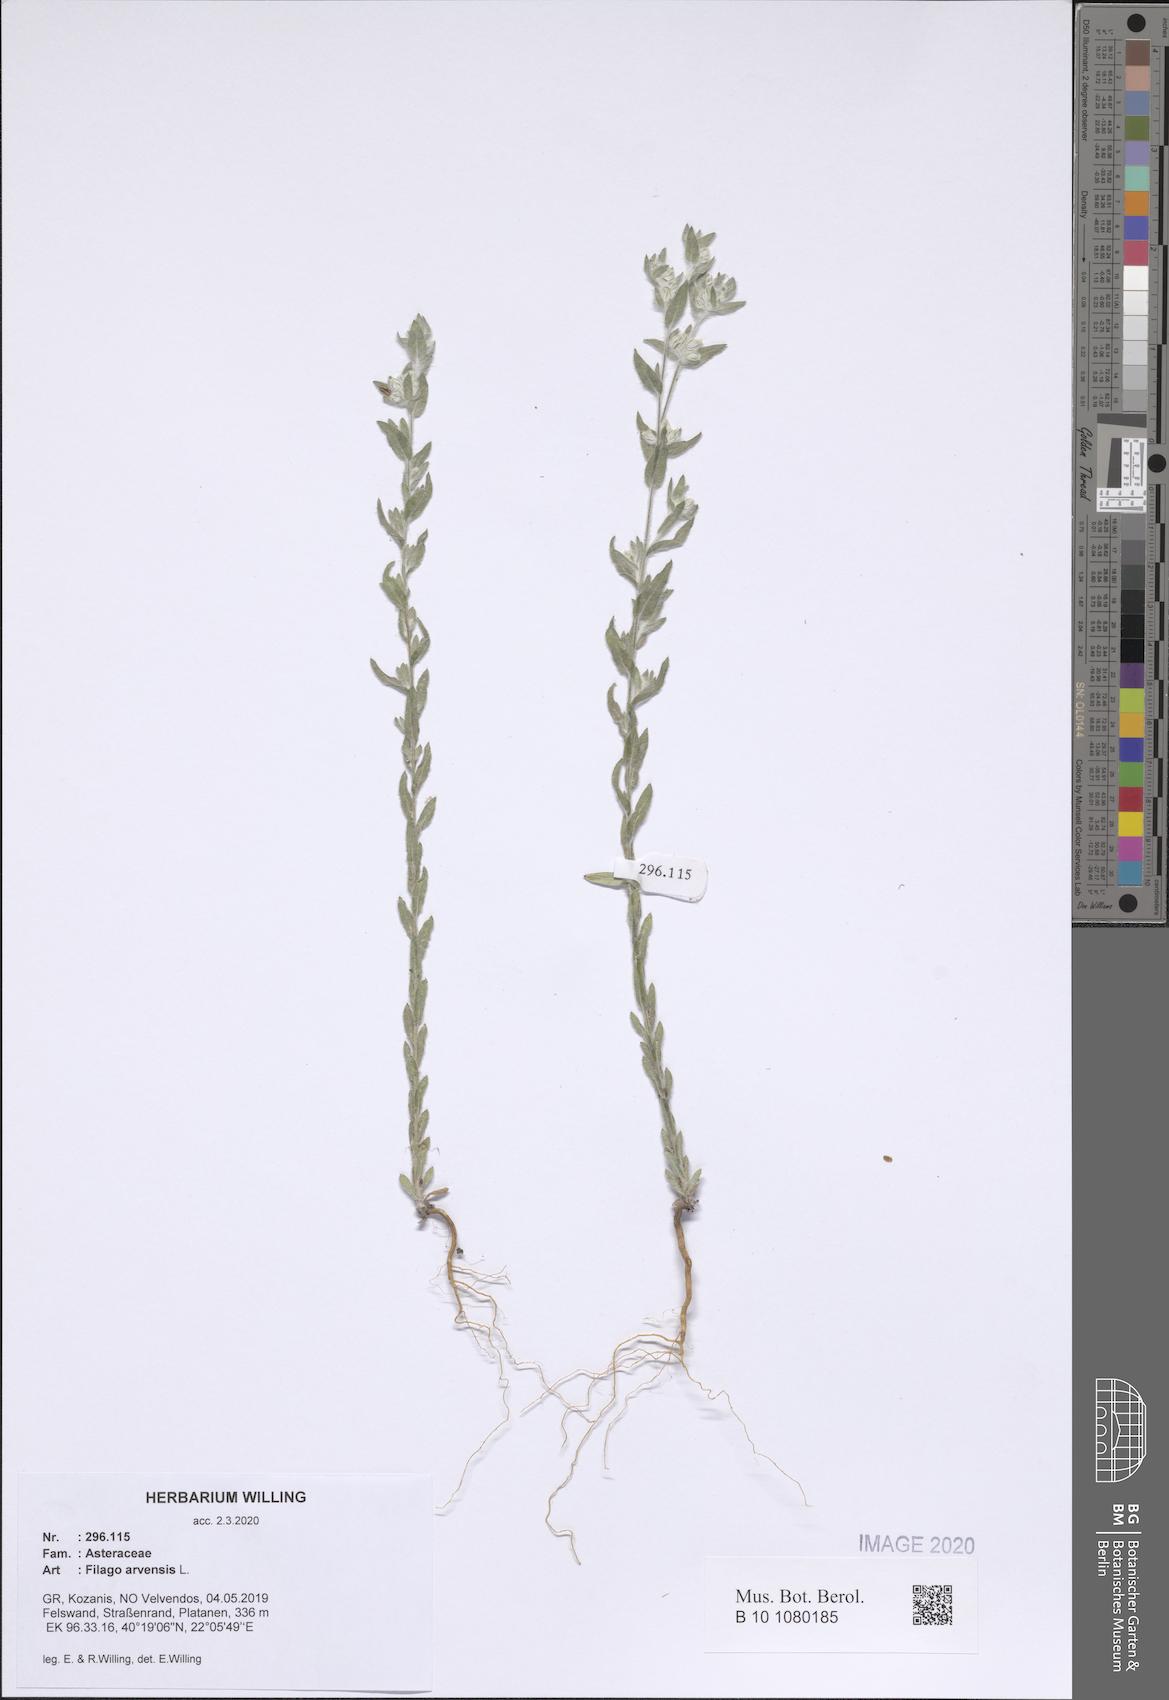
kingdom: Plantae
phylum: Tracheophyta
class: Magnoliopsida
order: Asterales
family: Asteraceae
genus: Filago
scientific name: Filago arvensis
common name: Field cudweed
